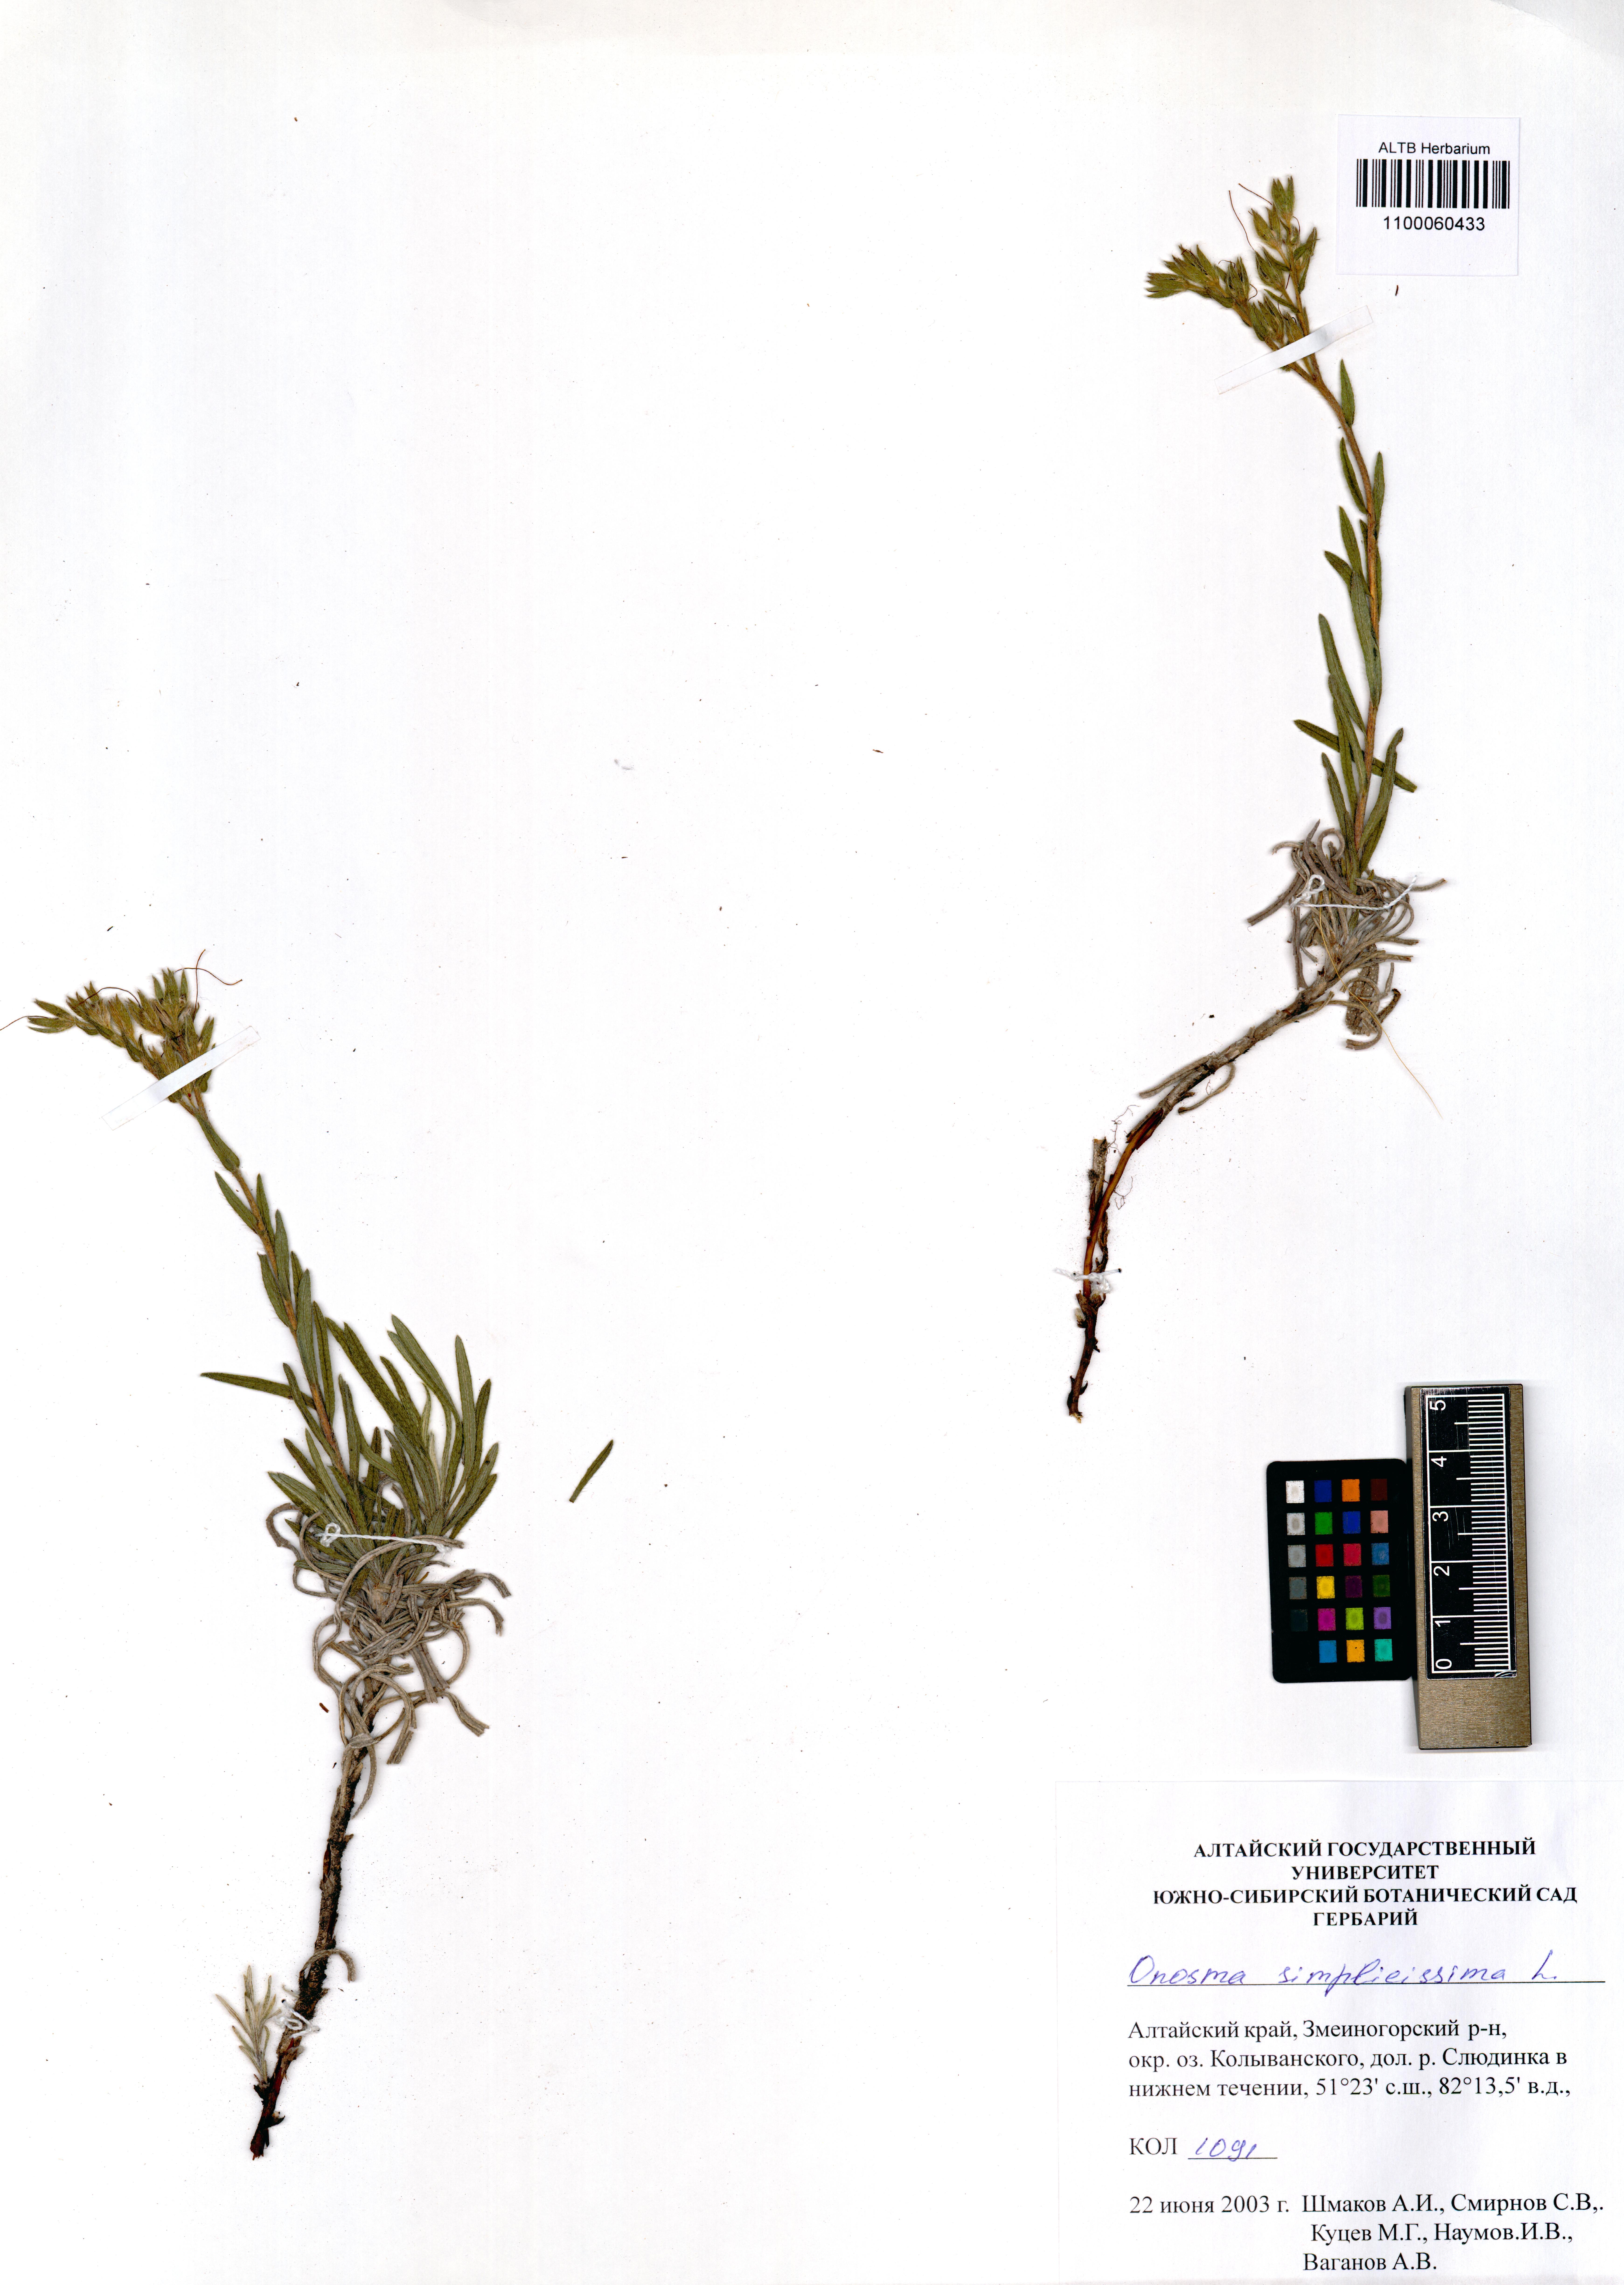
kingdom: Plantae
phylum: Tracheophyta
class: Magnoliopsida
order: Boraginales
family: Boraginaceae
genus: Onosma
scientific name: Onosma simplicissima
